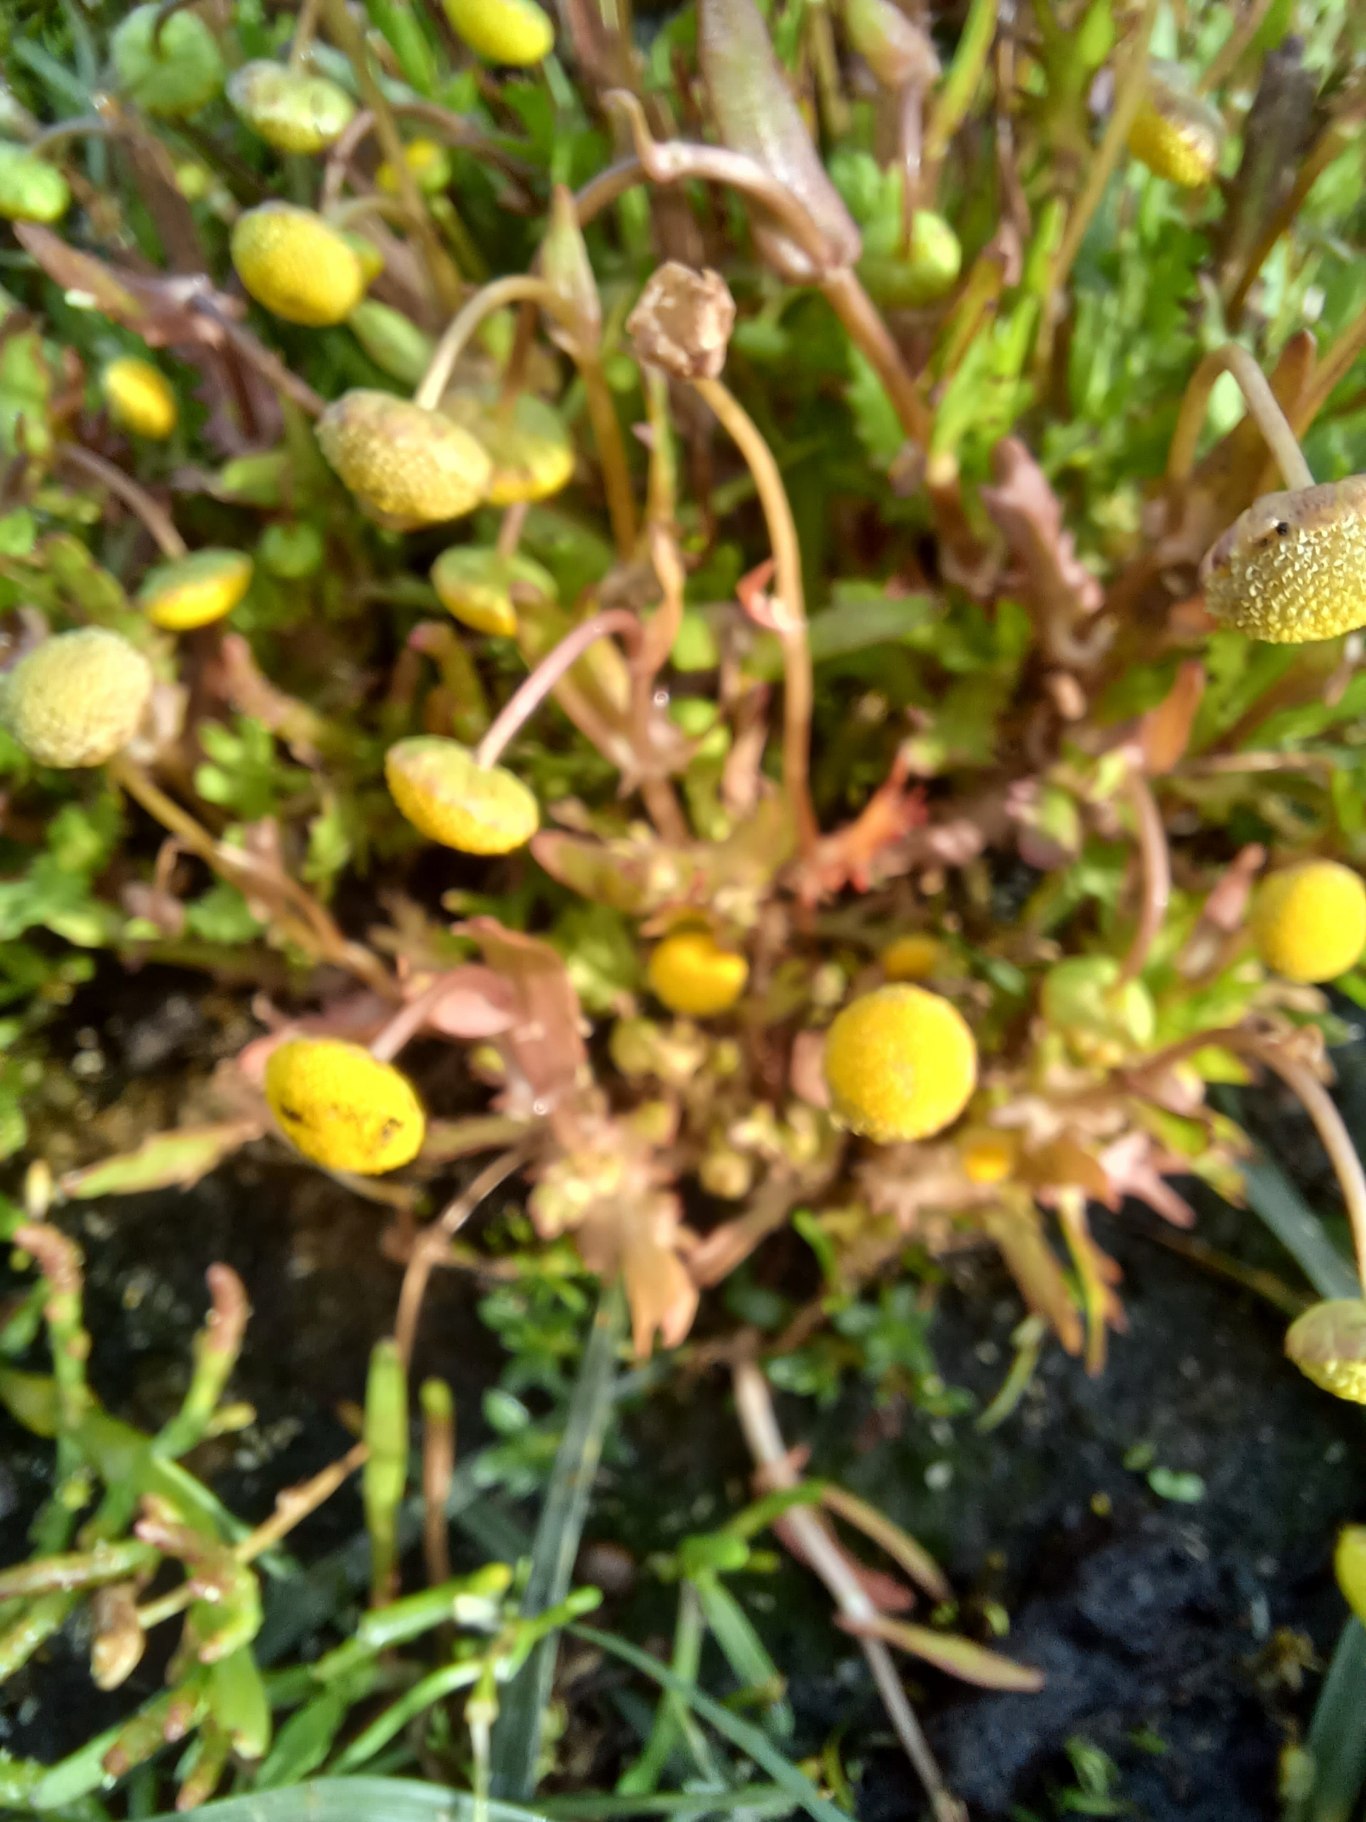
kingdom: Plantae
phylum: Tracheophyta
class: Magnoliopsida
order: Asterales
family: Asteraceae
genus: Cotula
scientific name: Cotula coronopifolia
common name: Firkløft
